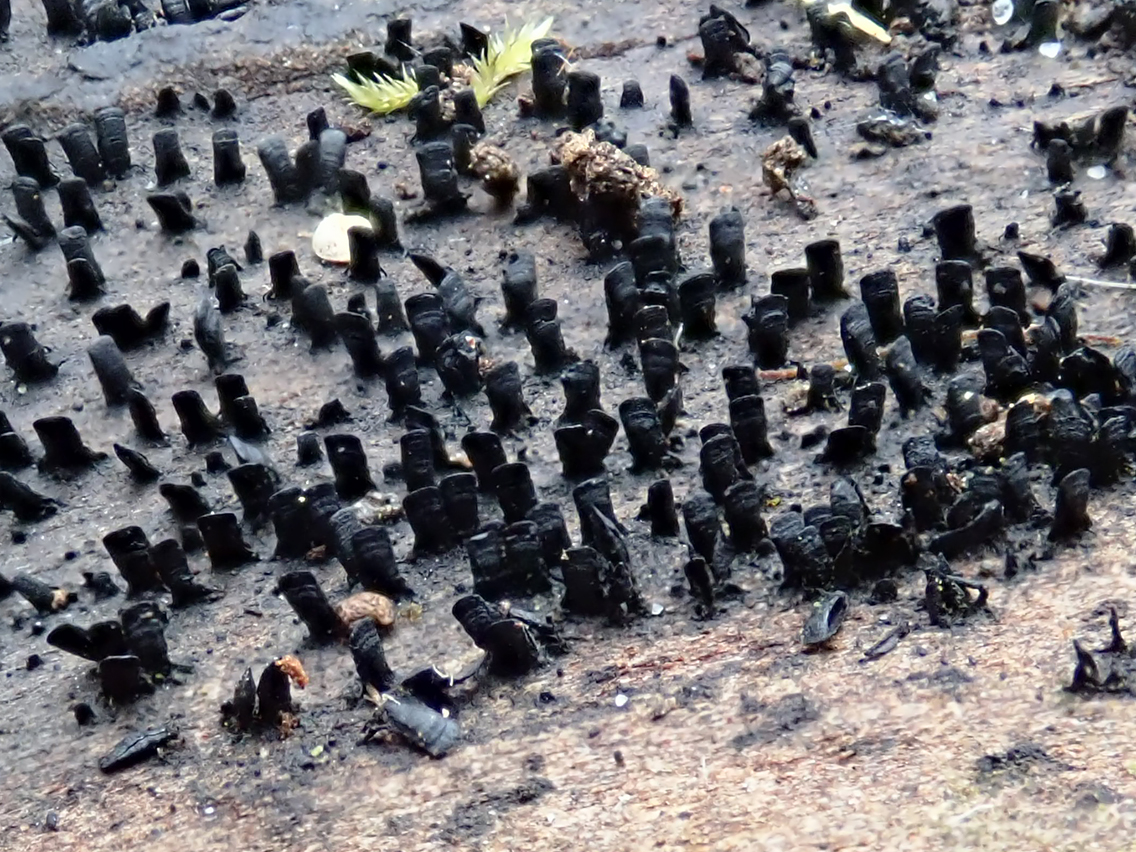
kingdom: Fungi
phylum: Ascomycota
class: Eurotiomycetes
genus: Glyphium
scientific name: Glyphium elatum
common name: kuløkse
